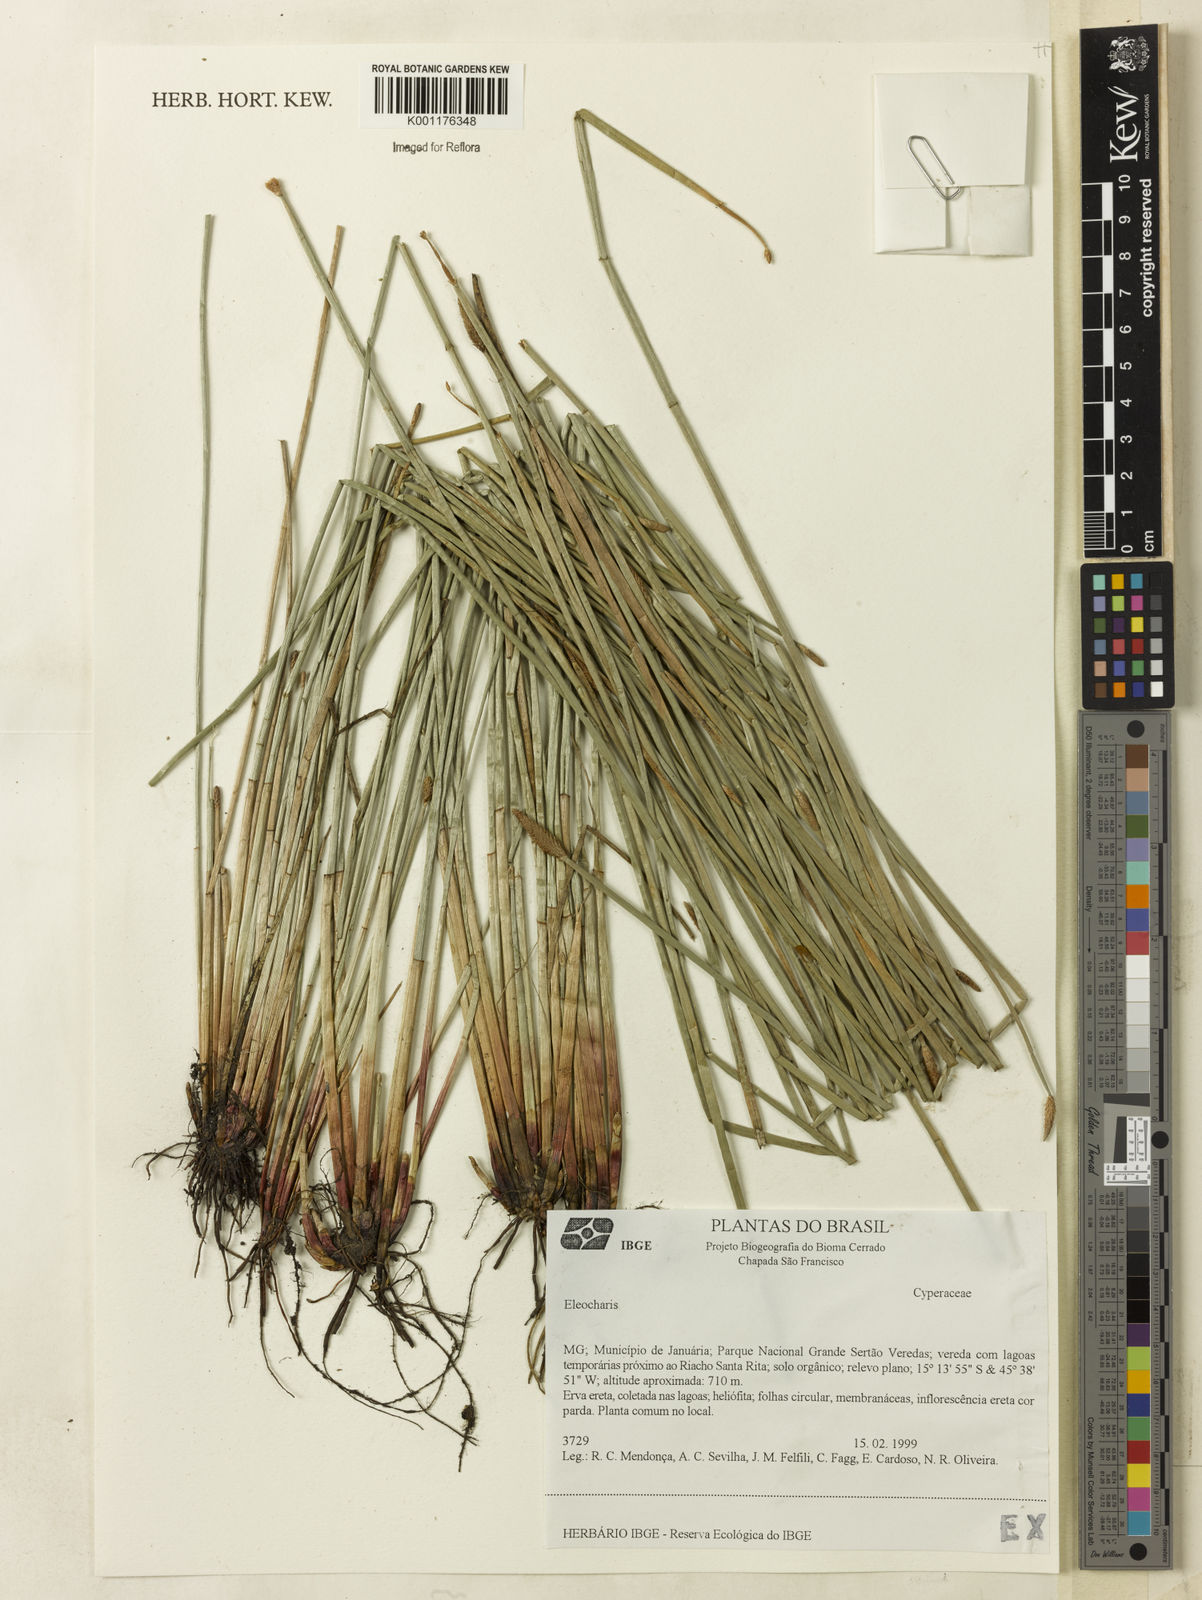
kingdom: Plantae
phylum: Tracheophyta
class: Liliopsida
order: Poales
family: Cyperaceae
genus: Eleocharis
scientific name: Eleocharis
